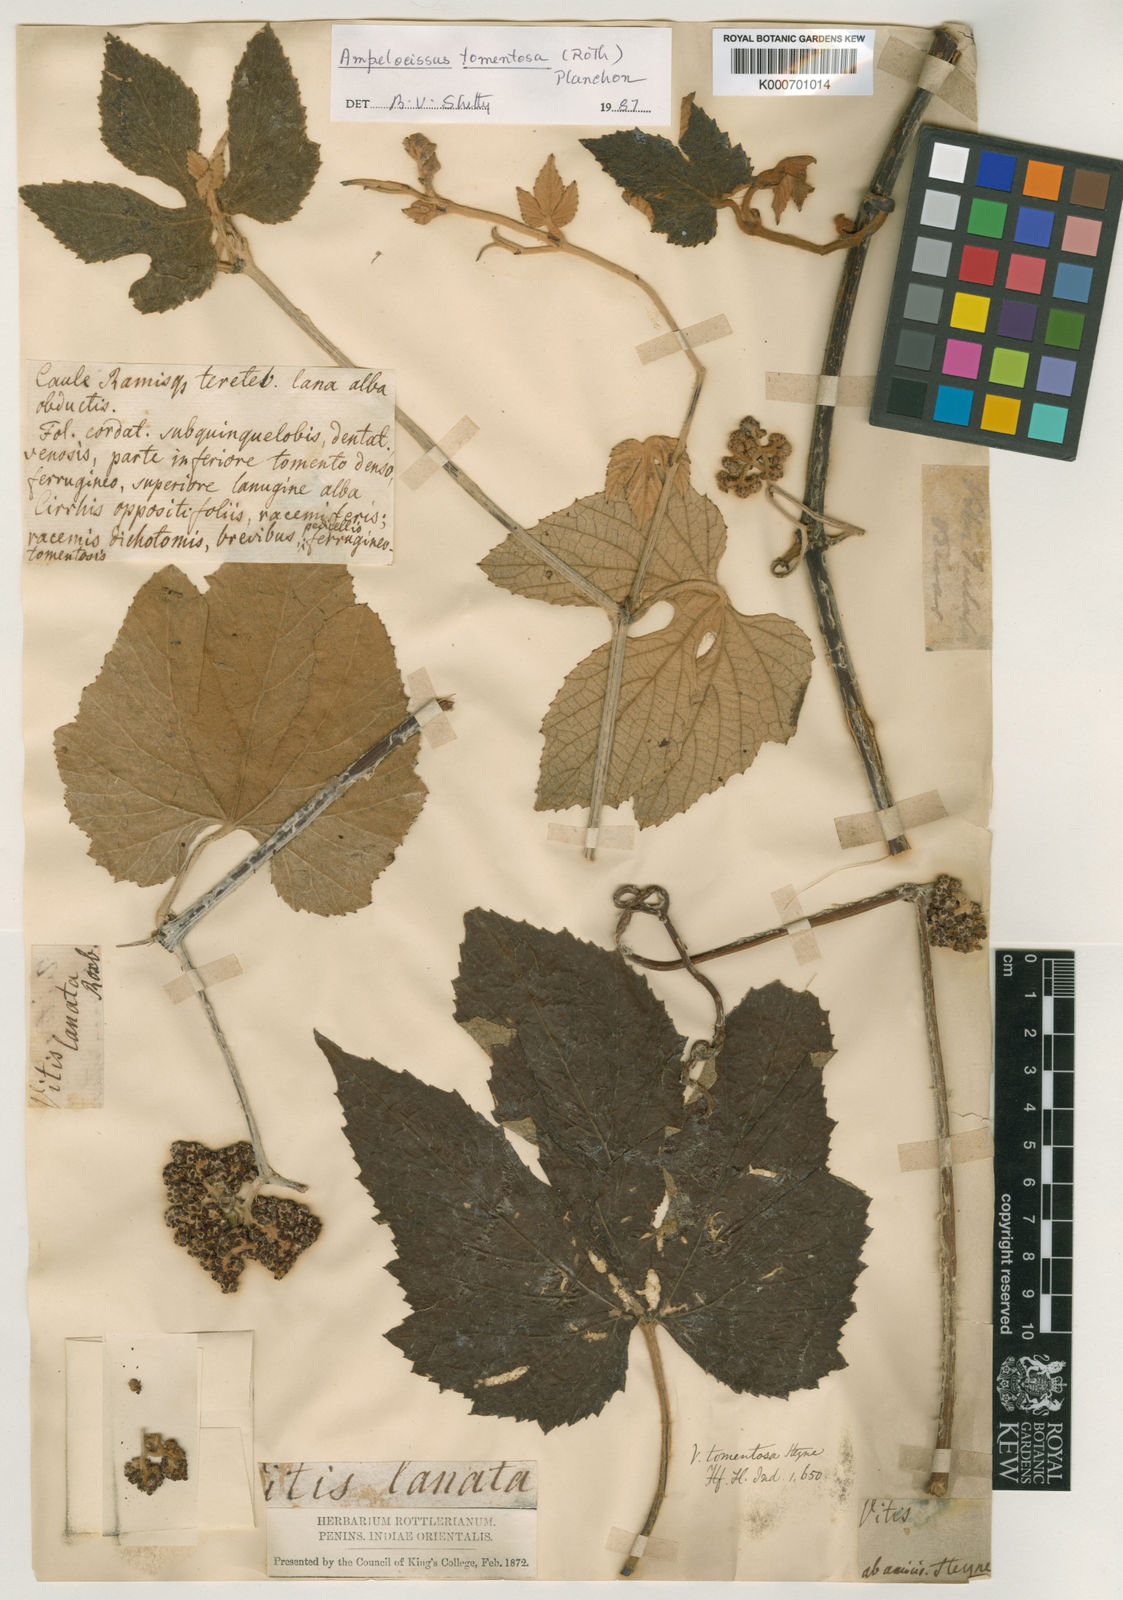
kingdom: Plantae
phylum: Tracheophyta
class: Magnoliopsida
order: Vitales
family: Vitaceae
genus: Ampelocissus
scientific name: Ampelocissus tomentosa
